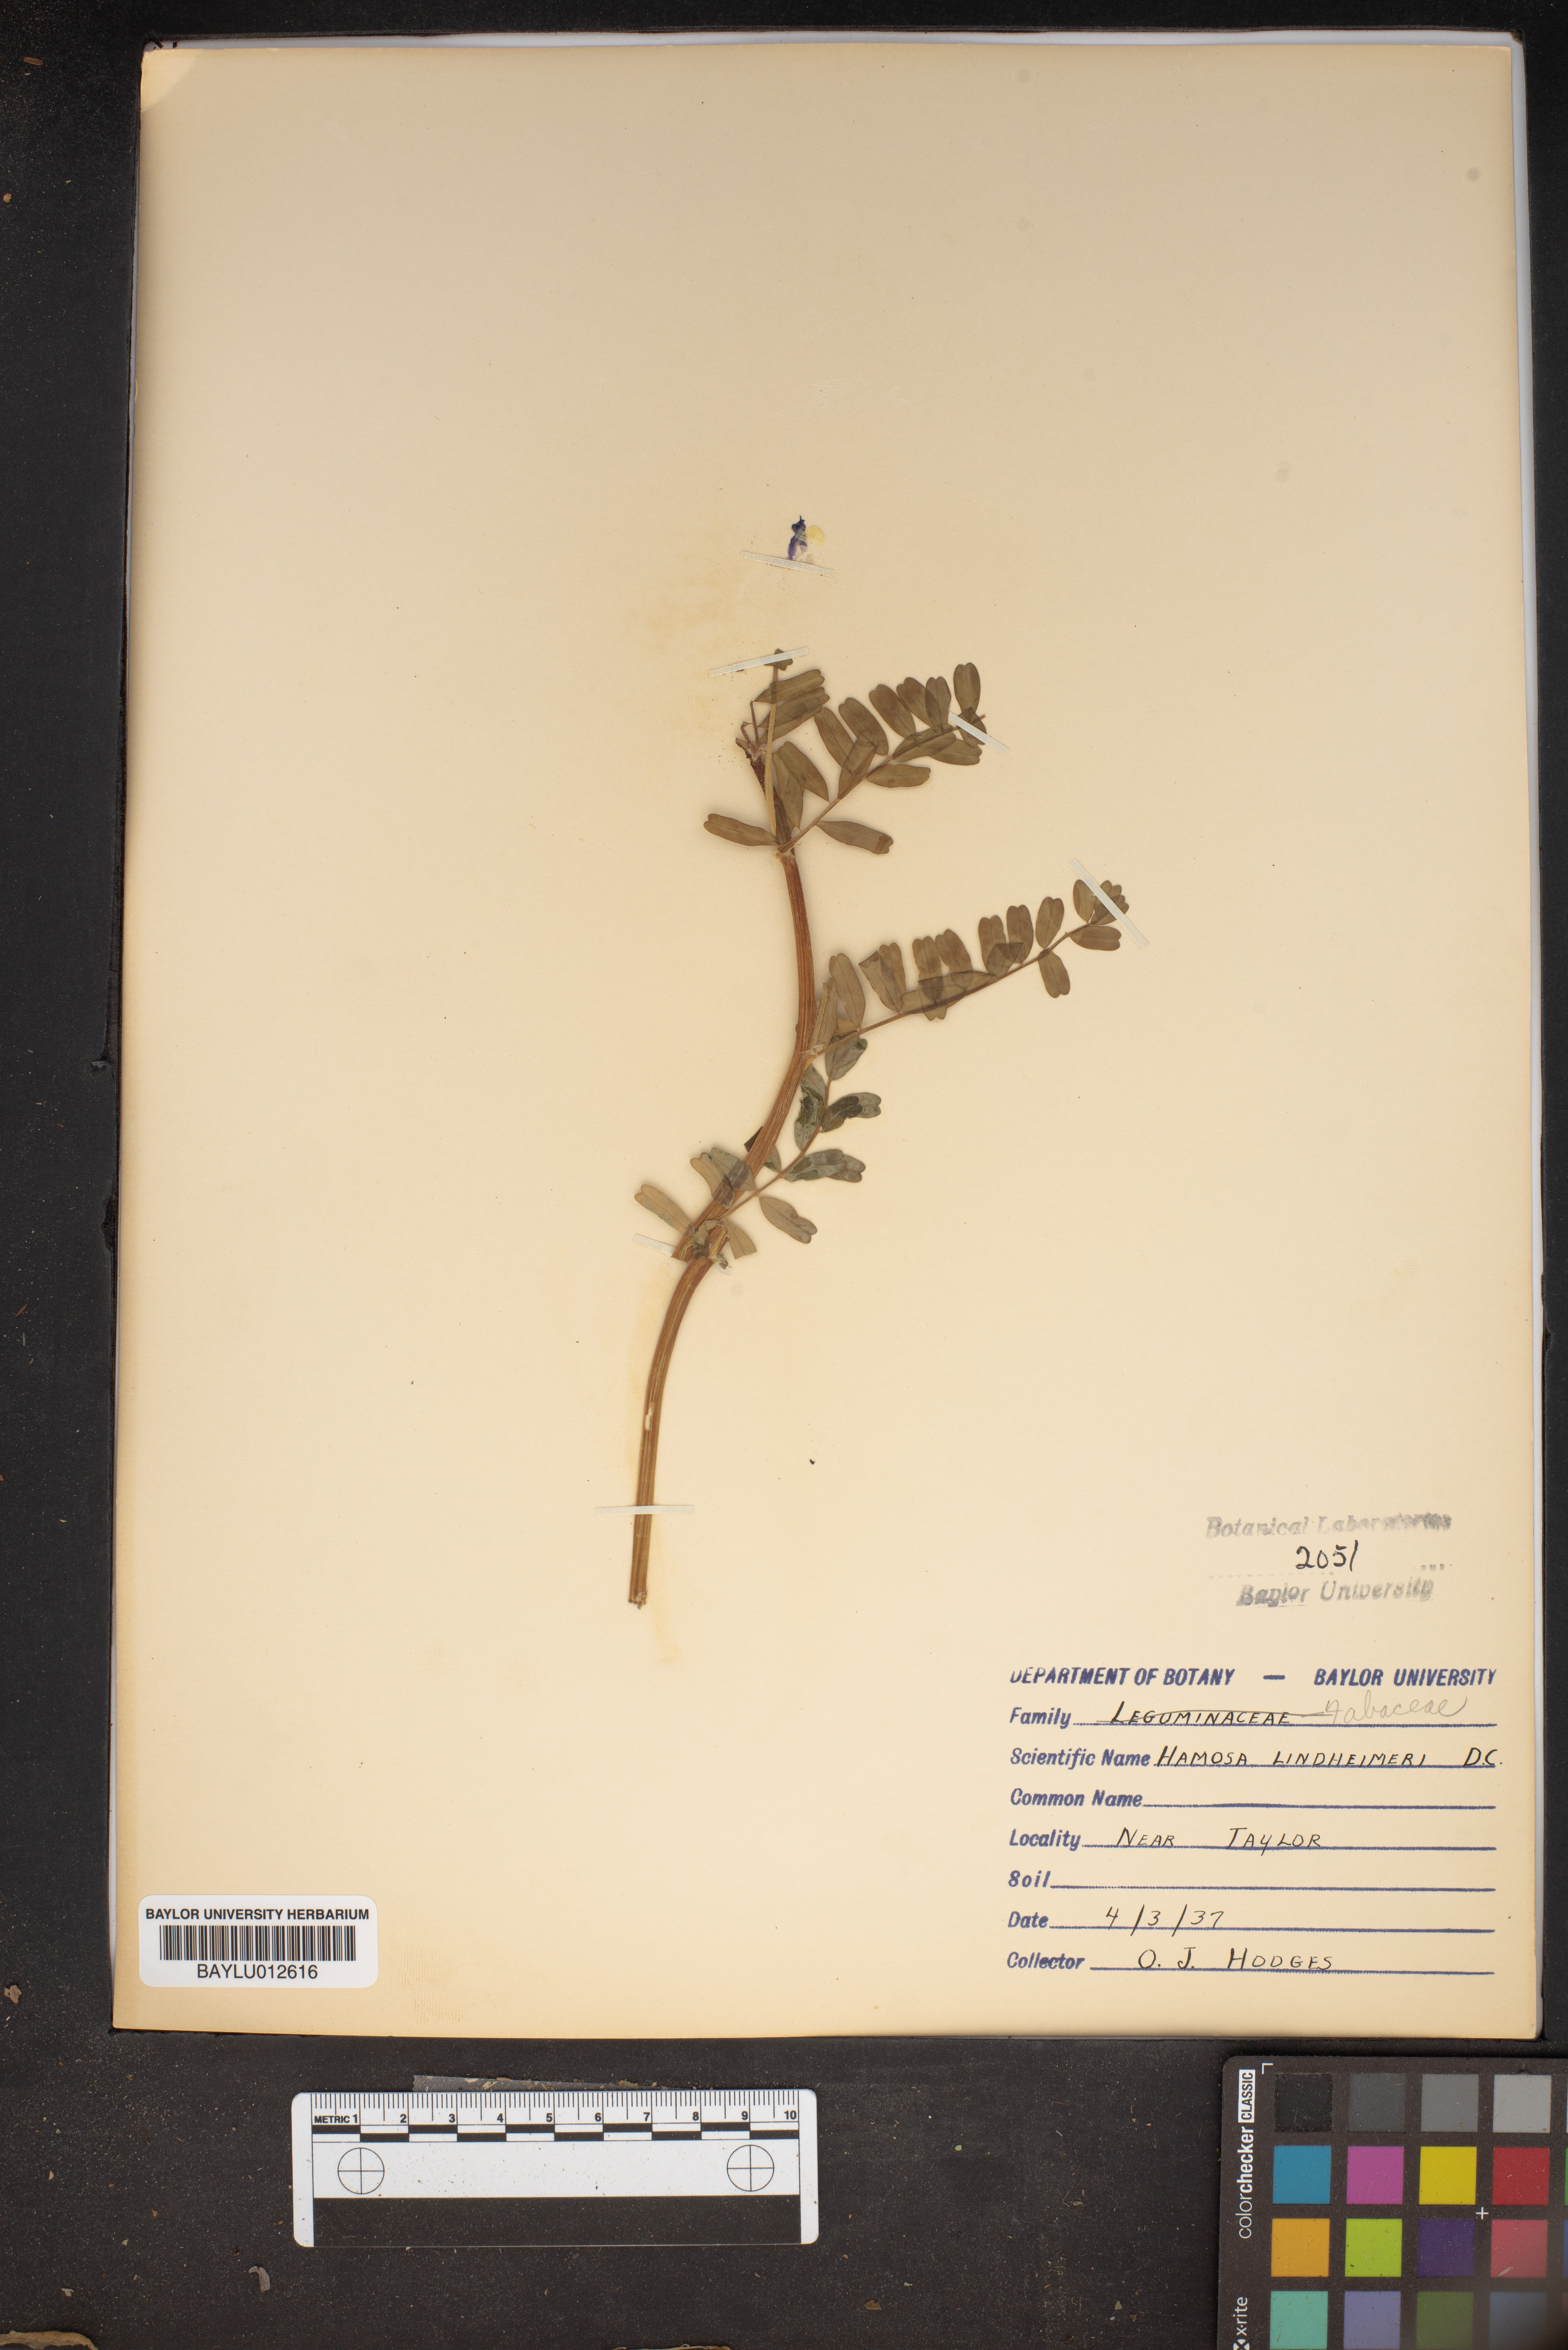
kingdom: Plantae
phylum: Tracheophyta
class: Magnoliopsida
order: Fabales
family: Fabaceae
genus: Astragalus
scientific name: Astragalus lindheimeri
